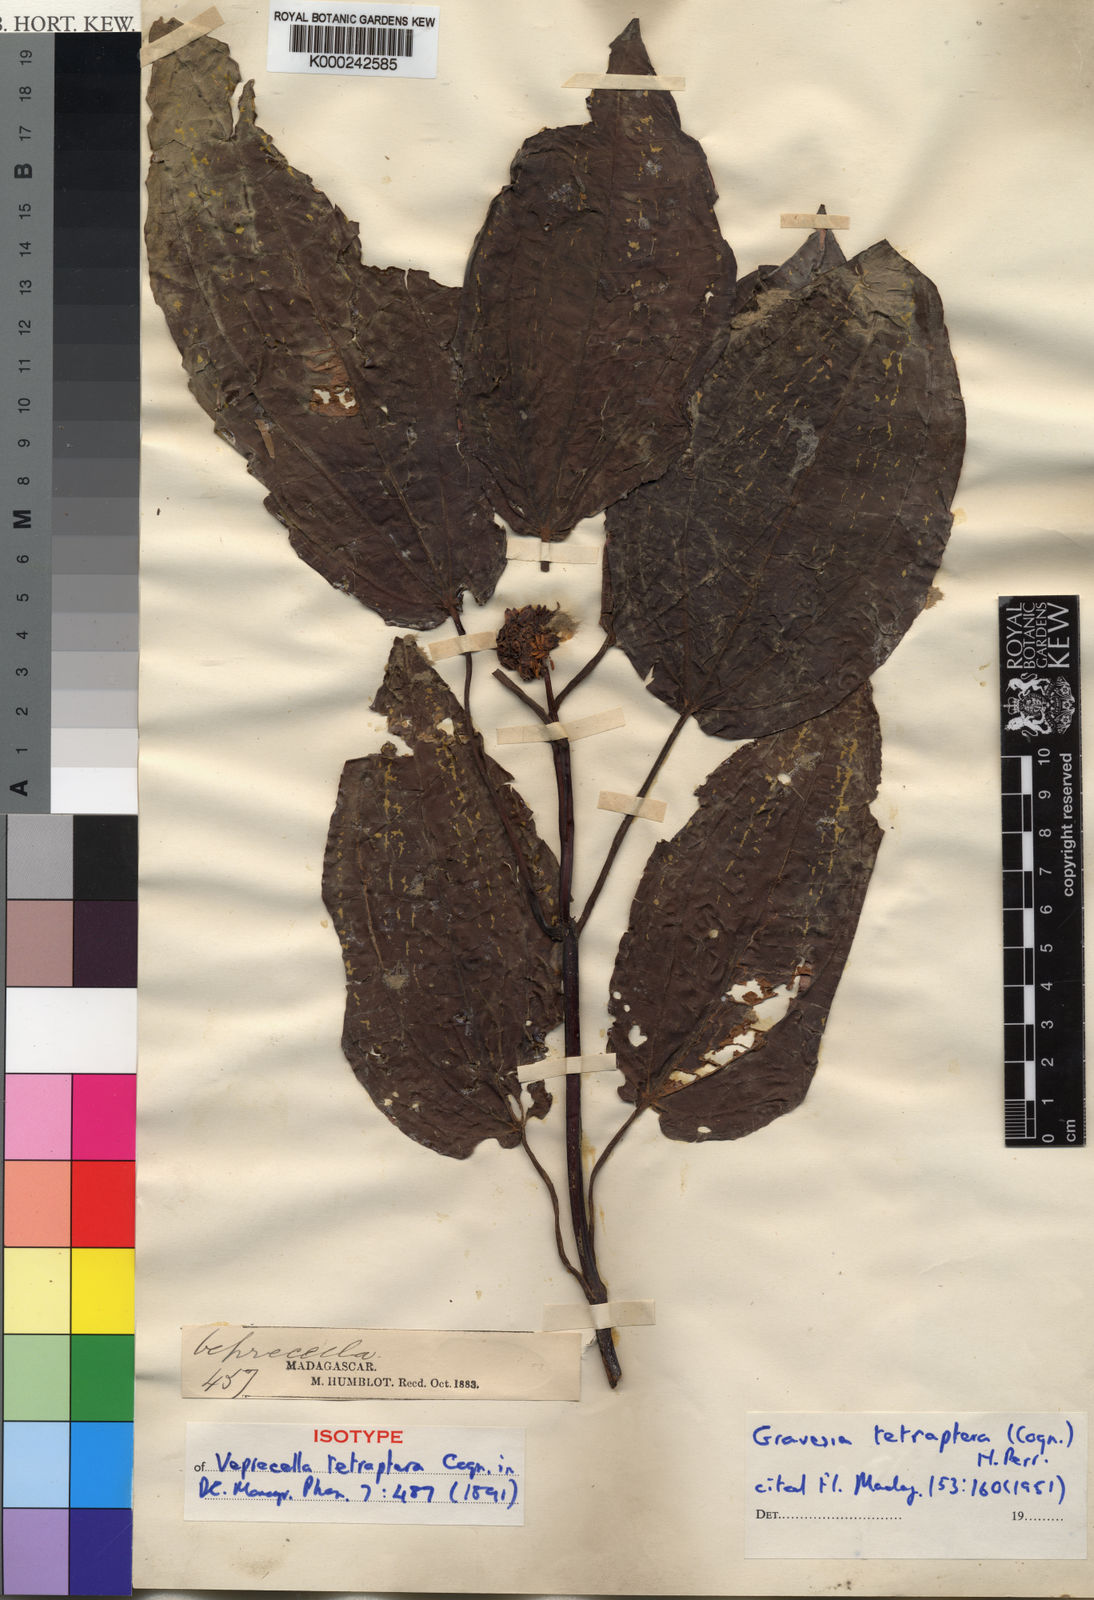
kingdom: Plantae
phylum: Tracheophyta
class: Magnoliopsida
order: Myrtales
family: Melastomataceae
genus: Gravesia
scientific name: Gravesia tetraptera
